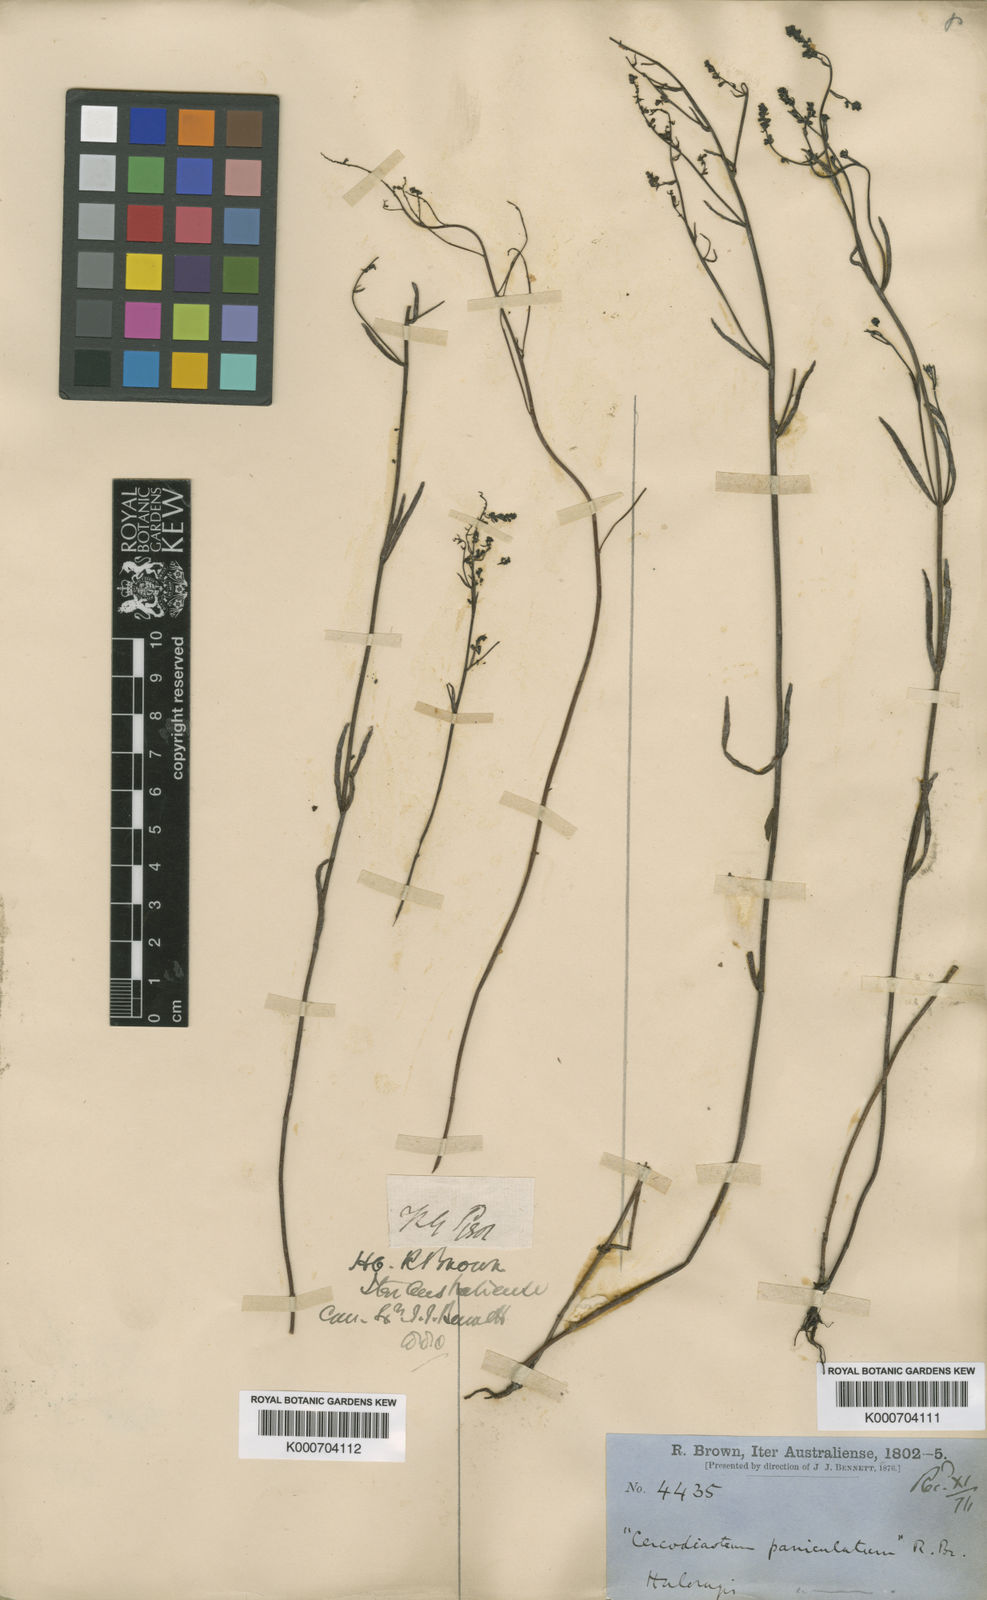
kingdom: Plantae
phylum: Tracheophyta
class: Magnoliopsida
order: Saxifragales
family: Haloragaceae
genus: Gonocarpus
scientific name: Gonocarpus paniculatus
